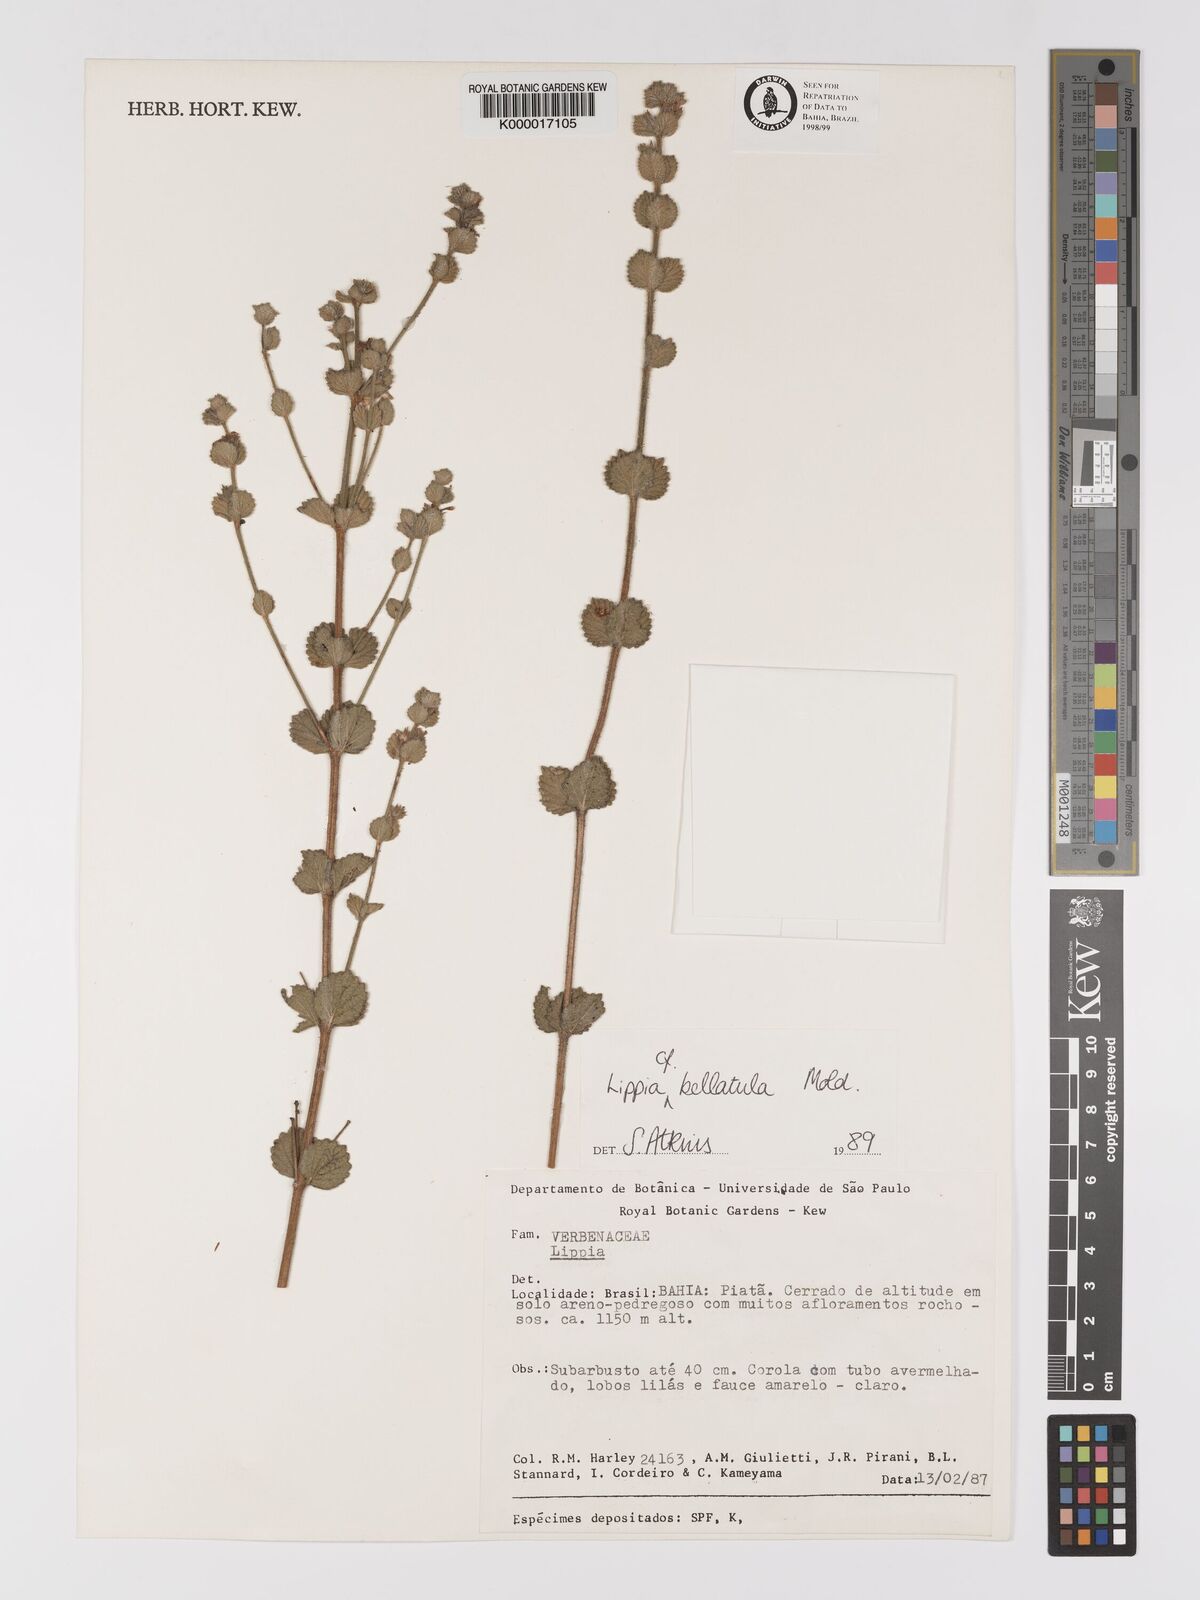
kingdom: Plantae
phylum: Tracheophyta
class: Magnoliopsida
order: Lamiales
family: Verbenaceae
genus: Lippia
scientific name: Lippia bellatula
